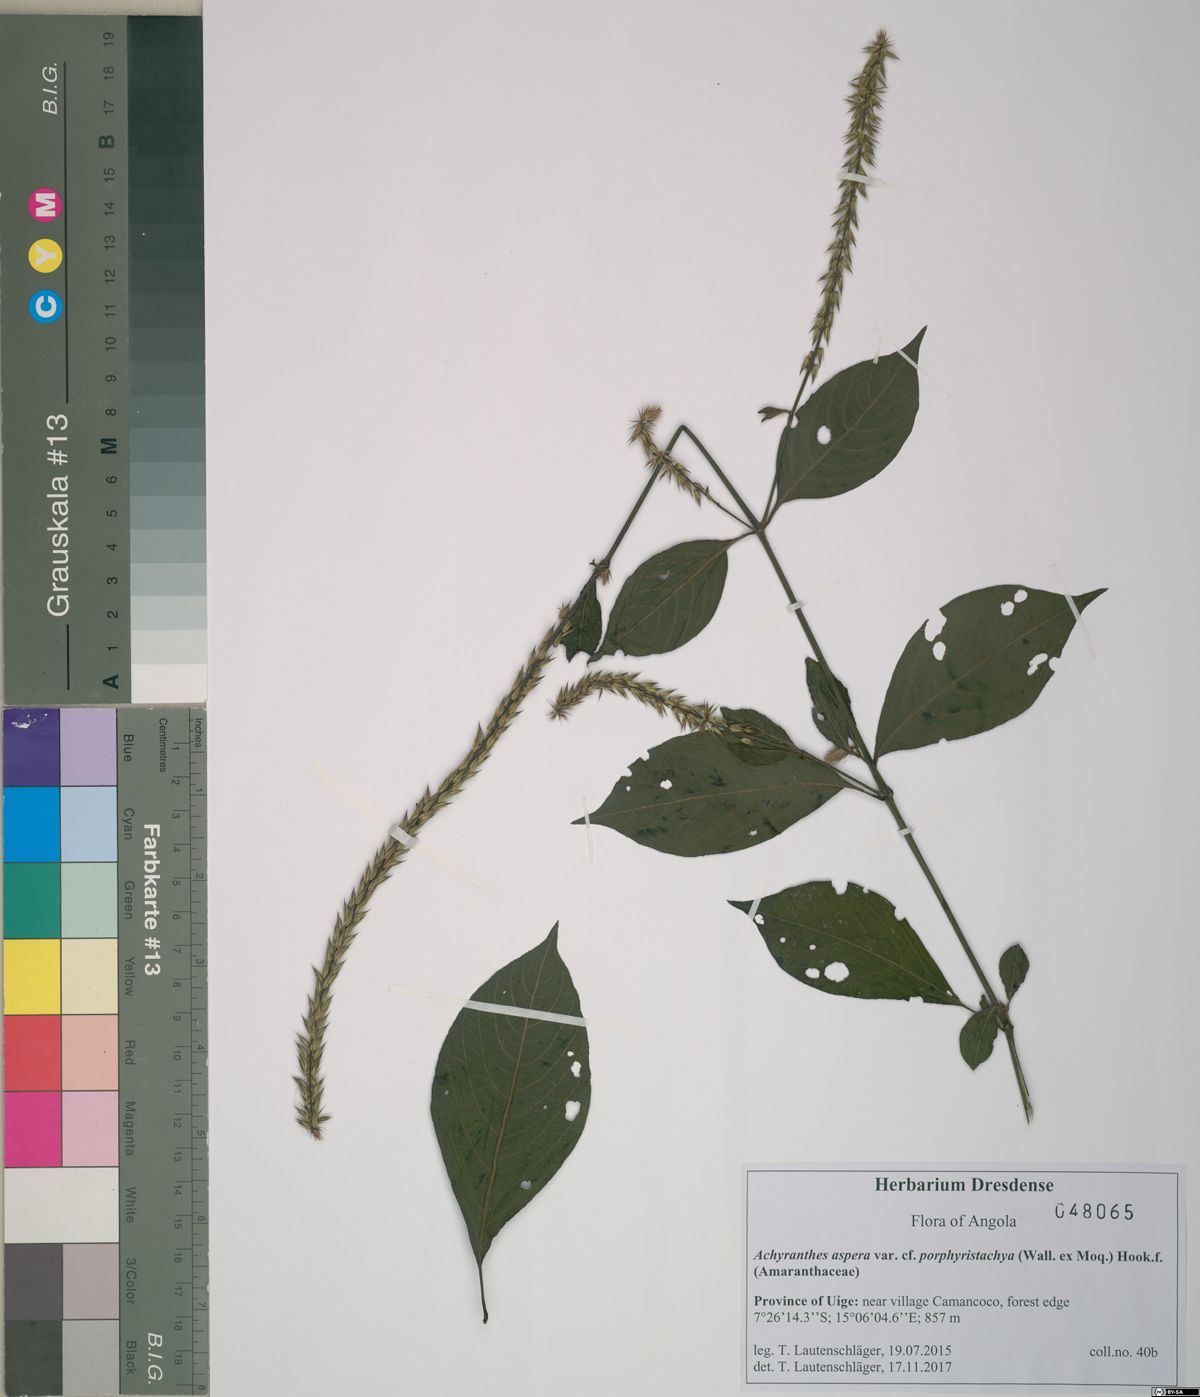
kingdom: Plantae
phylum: Tracheophyta
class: Magnoliopsida
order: Caryophyllales
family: Amaranthaceae
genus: Achyranthes
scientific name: Achyranthes coynei
